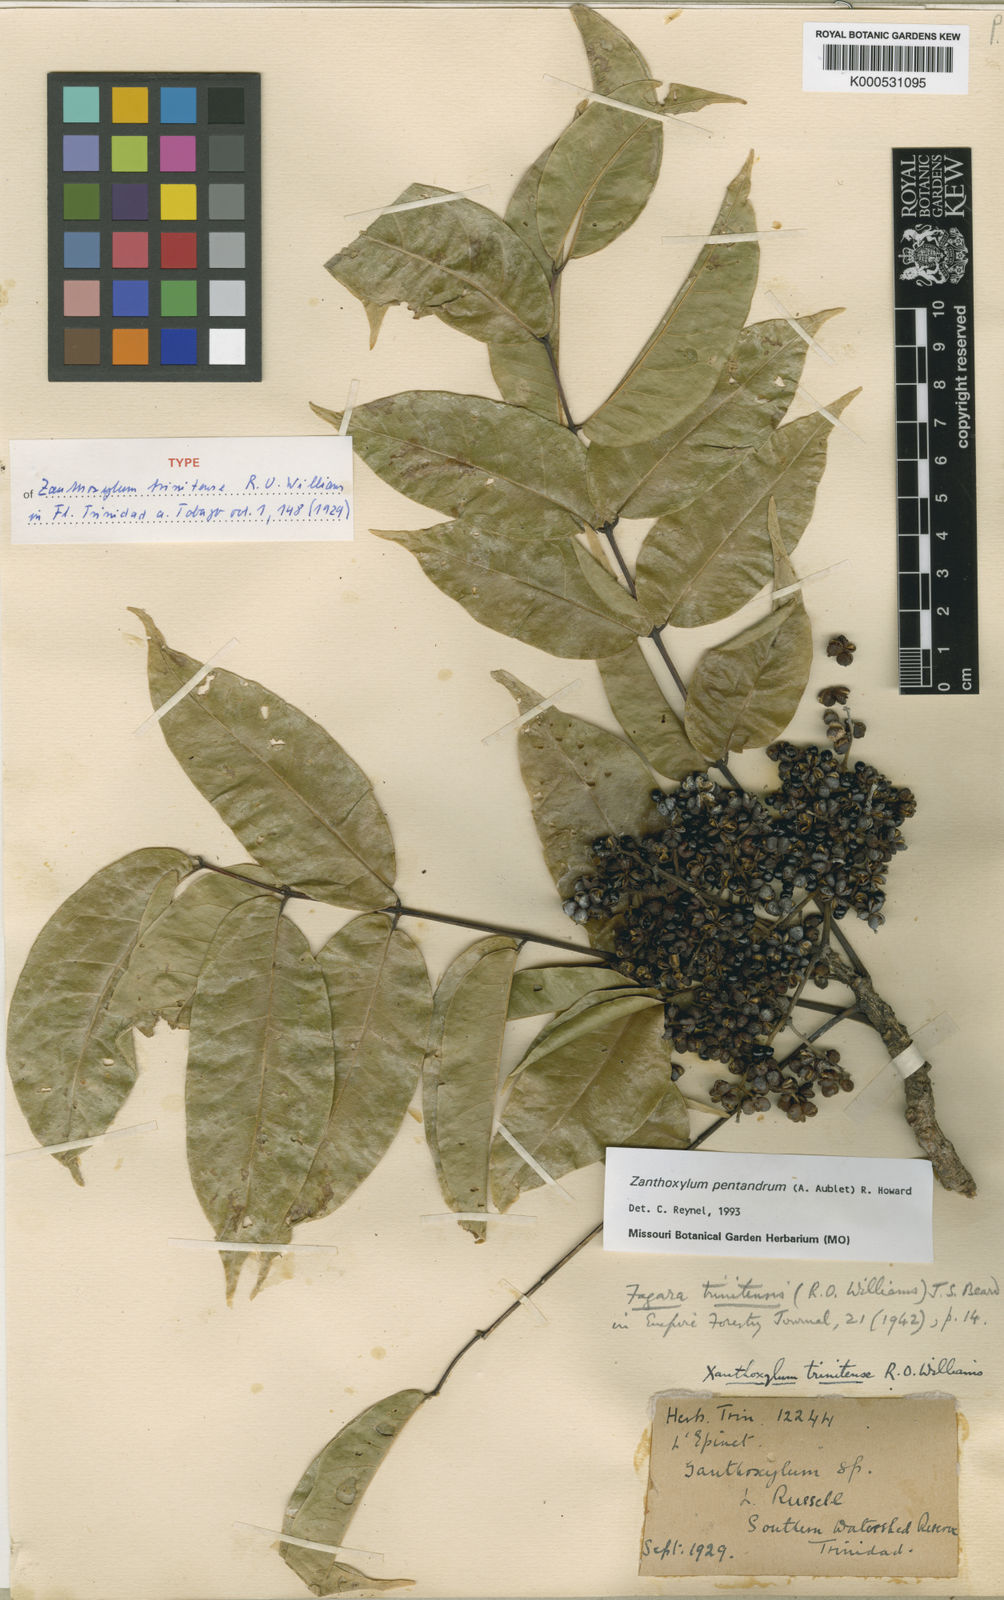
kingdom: Plantae
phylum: Tracheophyta
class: Magnoliopsida
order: Sapindales
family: Rutaceae
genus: Zanthoxylum
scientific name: Zanthoxylum pentandrum
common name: Fivestamen pricklyash
